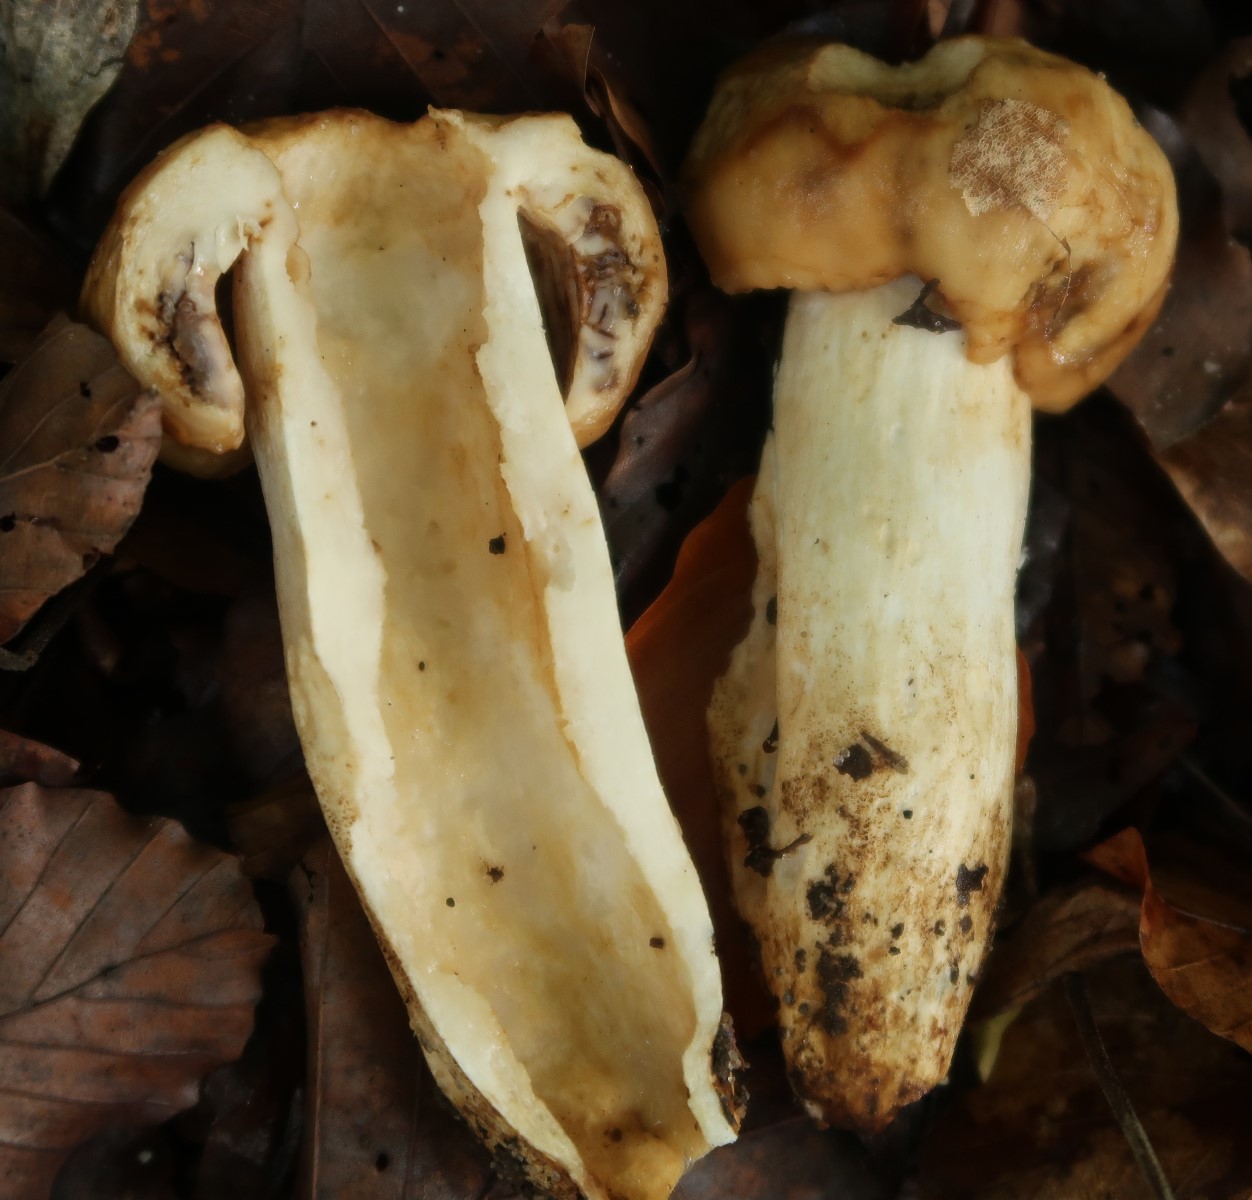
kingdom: Fungi
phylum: Basidiomycota
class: Agaricomycetes
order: Russulales
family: Russulaceae
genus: Russula
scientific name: Russula grata
